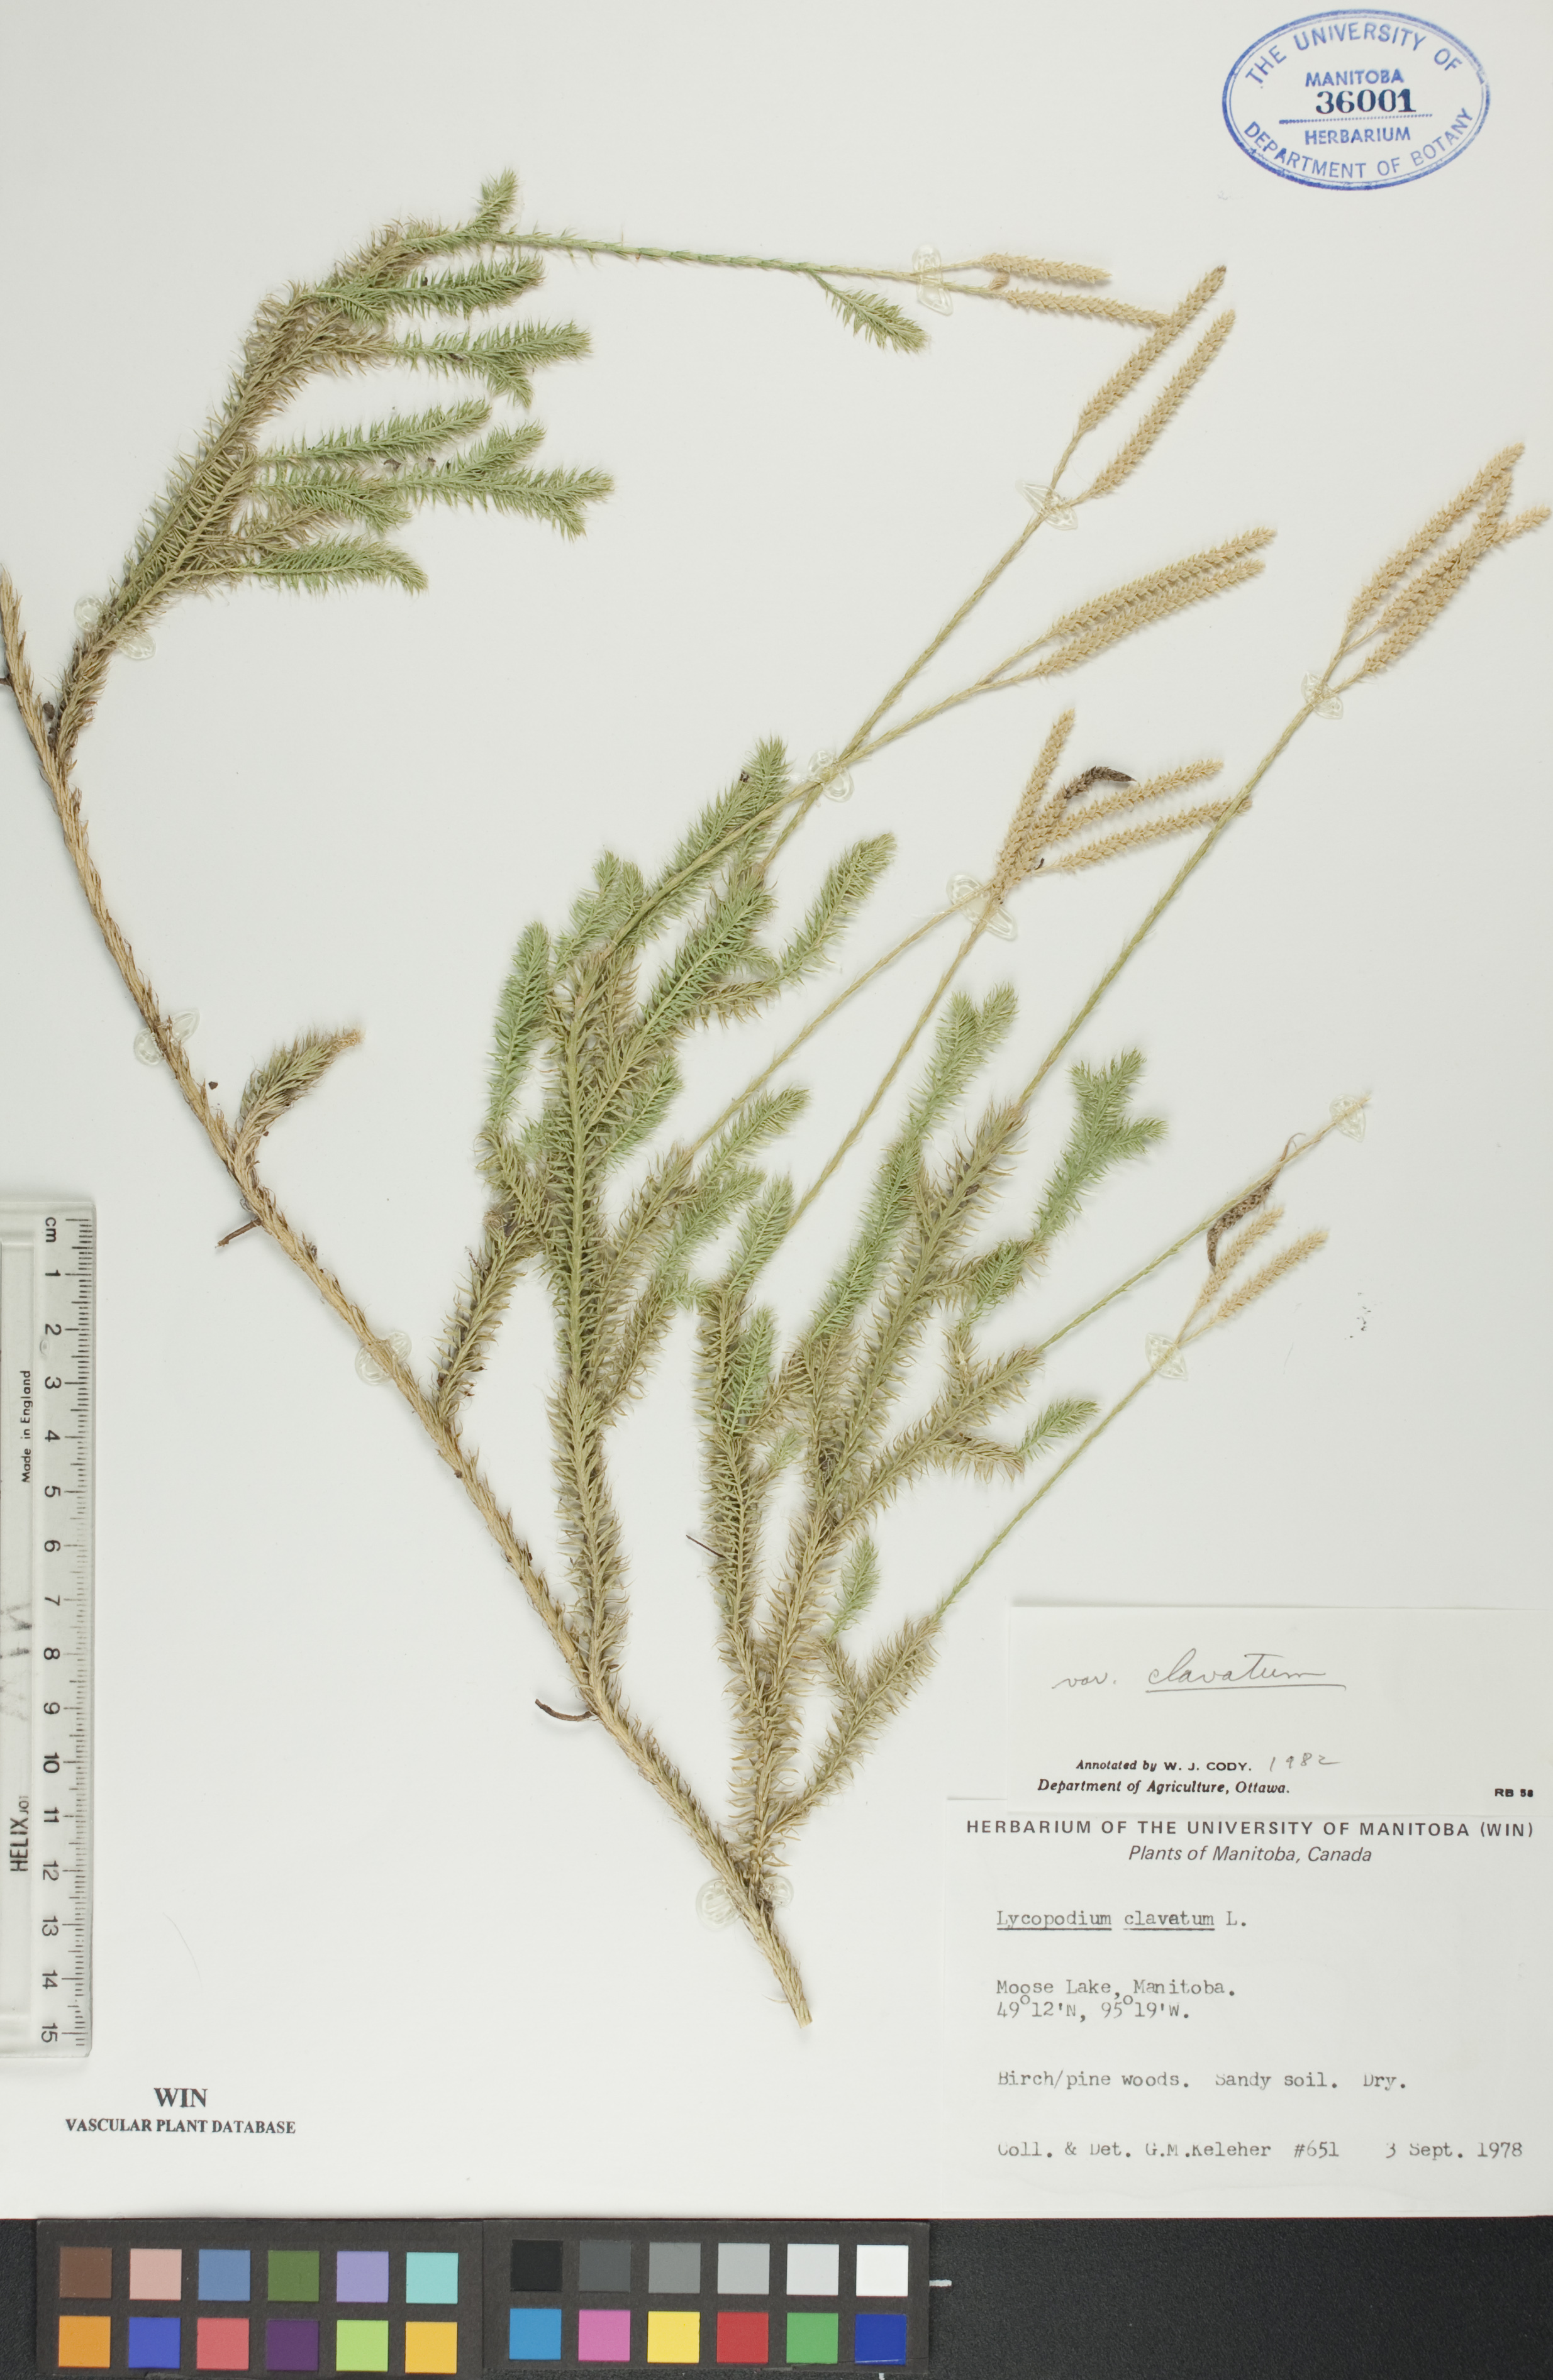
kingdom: Plantae
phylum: Tracheophyta
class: Lycopodiopsida
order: Lycopodiales
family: Lycopodiaceae
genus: Lycopodium
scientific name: Lycopodium clavatum
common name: Stag's-horn clubmoss
